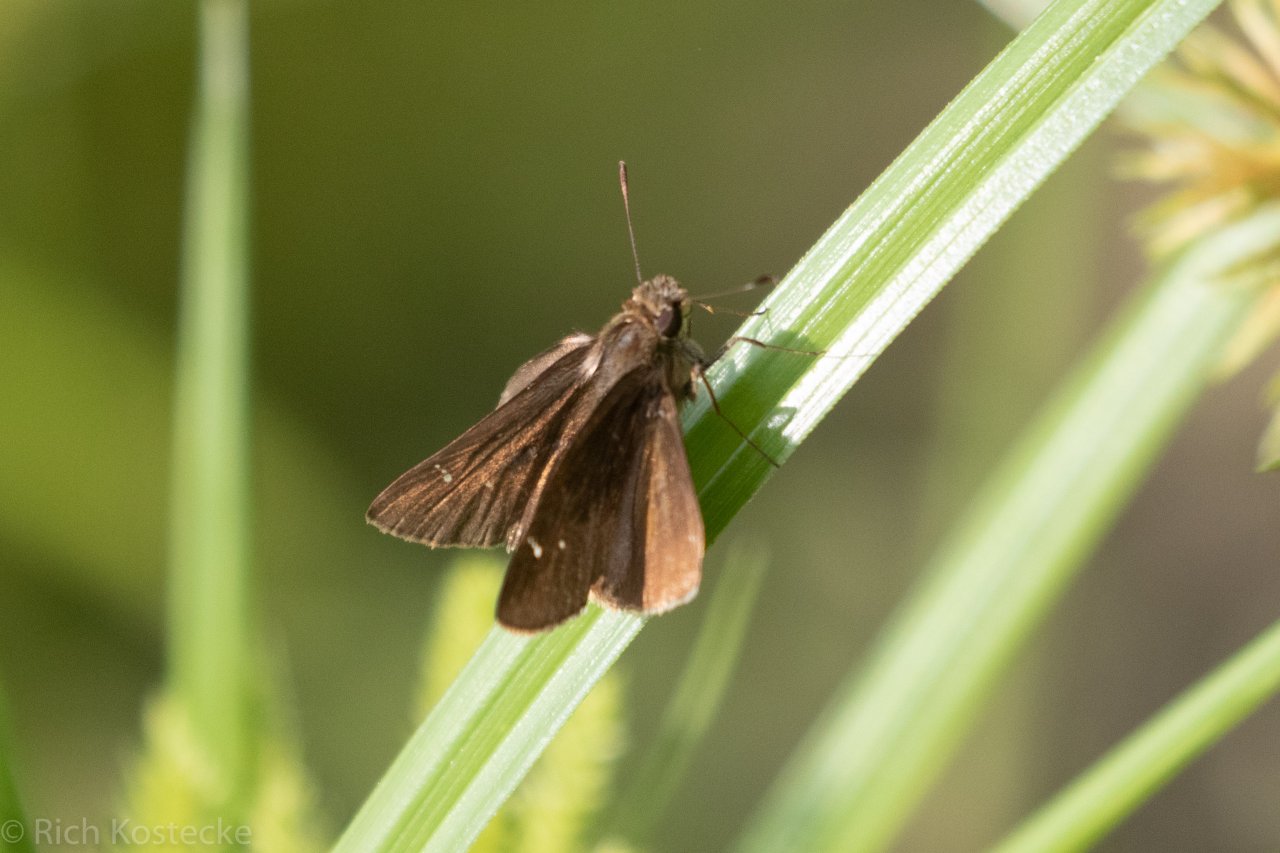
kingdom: Animalia
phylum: Arthropoda
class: Insecta
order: Lepidoptera
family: Hesperiidae
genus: Lerema
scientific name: Lerema accius
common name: Clouded Skipper
